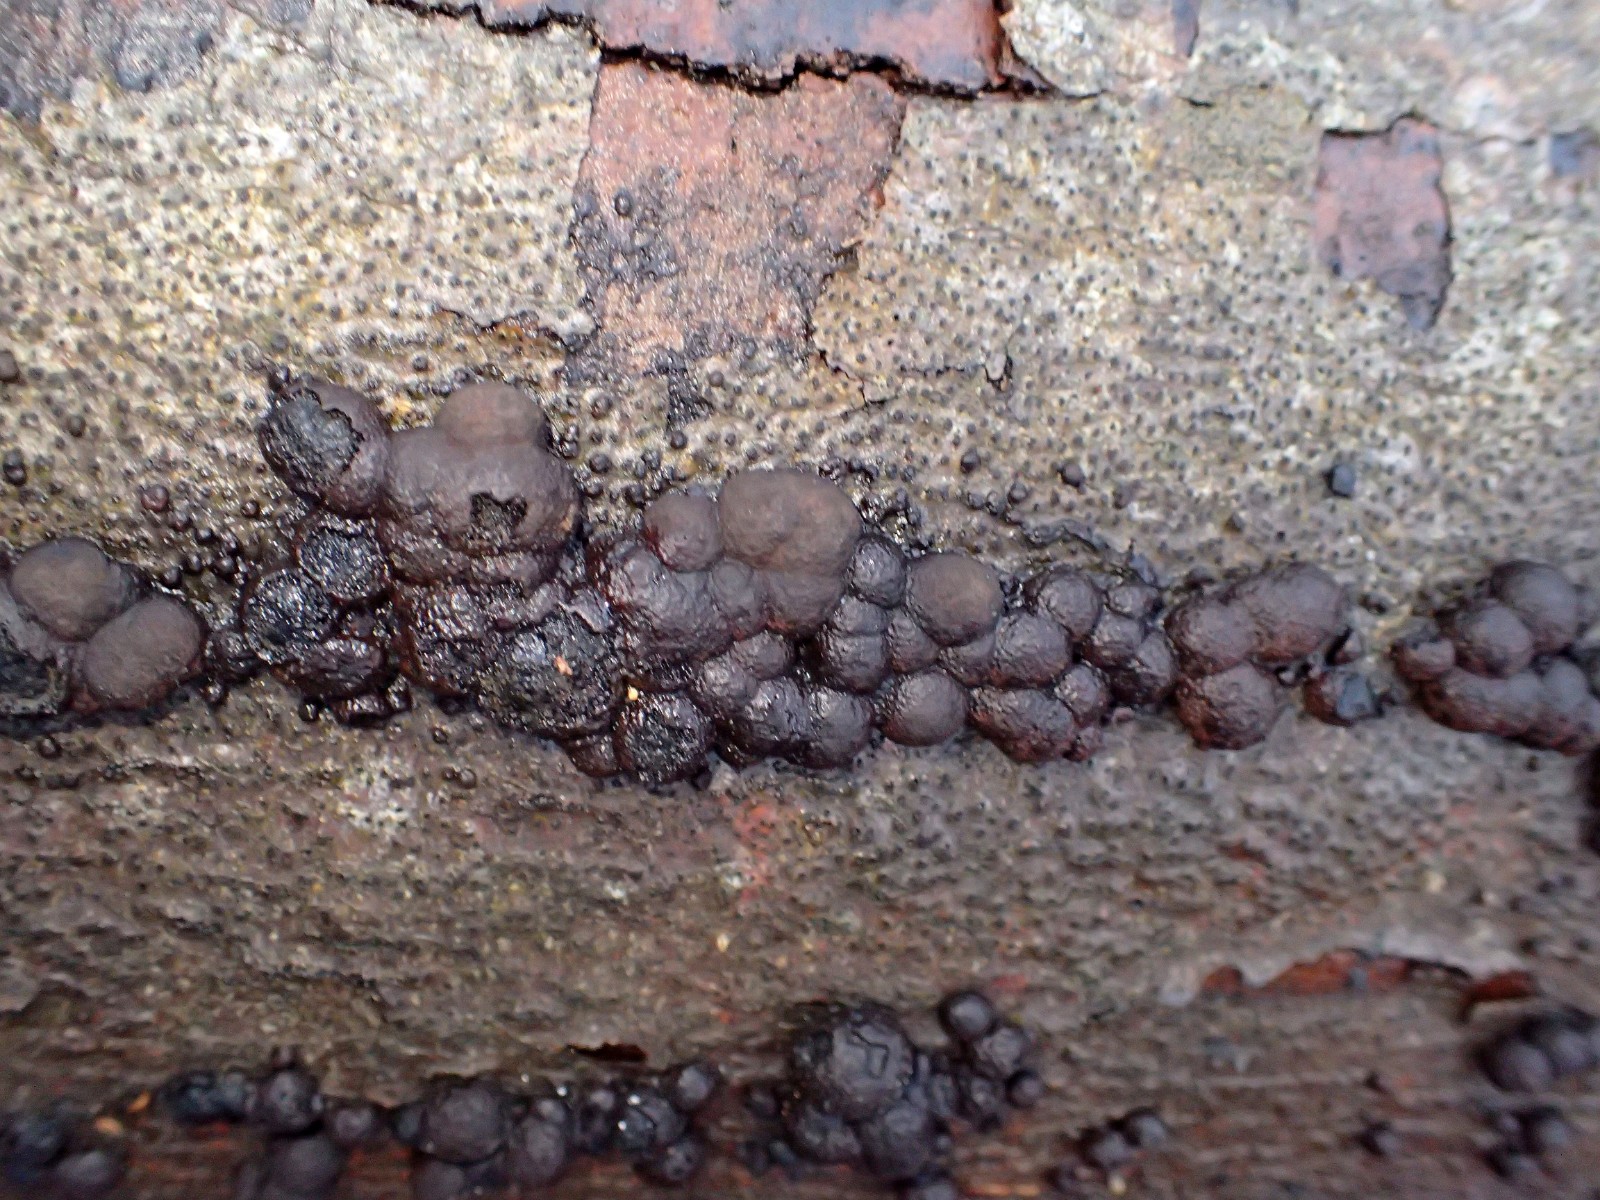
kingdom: Fungi
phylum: Ascomycota
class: Sordariomycetes
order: Xylariales
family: Hypoxylaceae
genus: Hypoxylon
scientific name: Hypoxylon fragiforme
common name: kuljordbær
